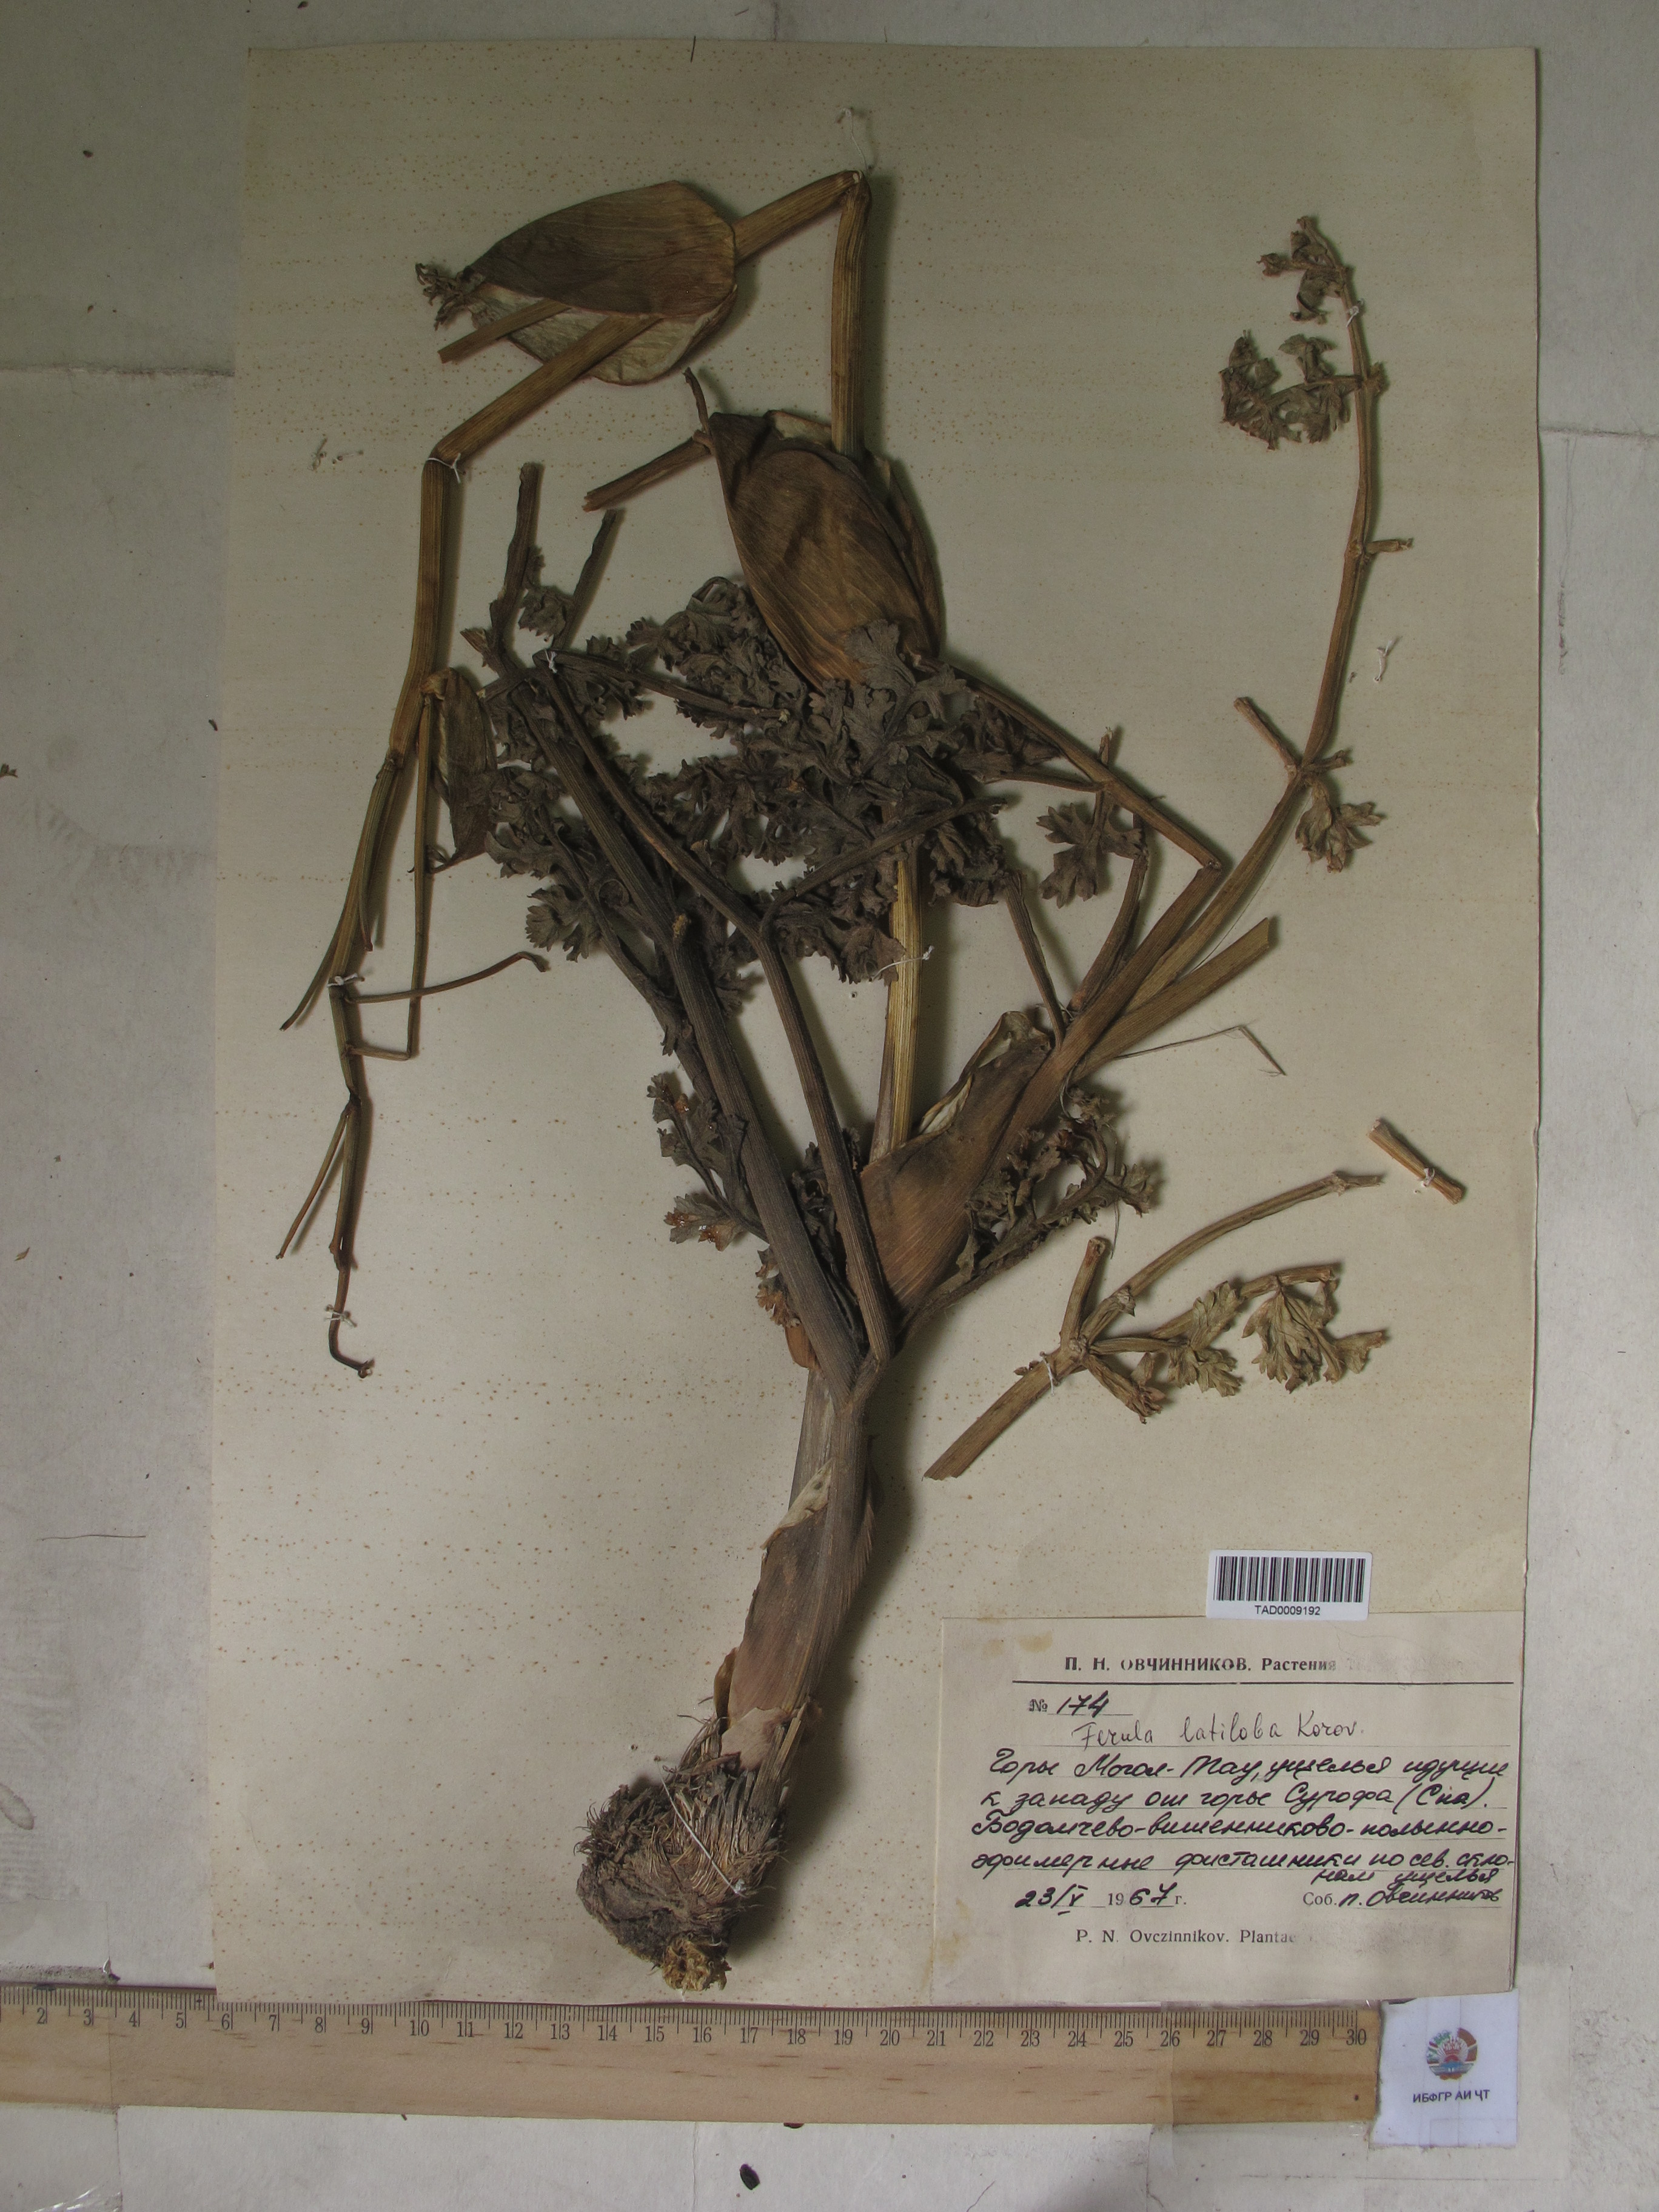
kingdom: Plantae
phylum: Tracheophyta
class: Magnoliopsida
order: Apiales
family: Apiaceae
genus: Ferula
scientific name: Ferula latiloba
